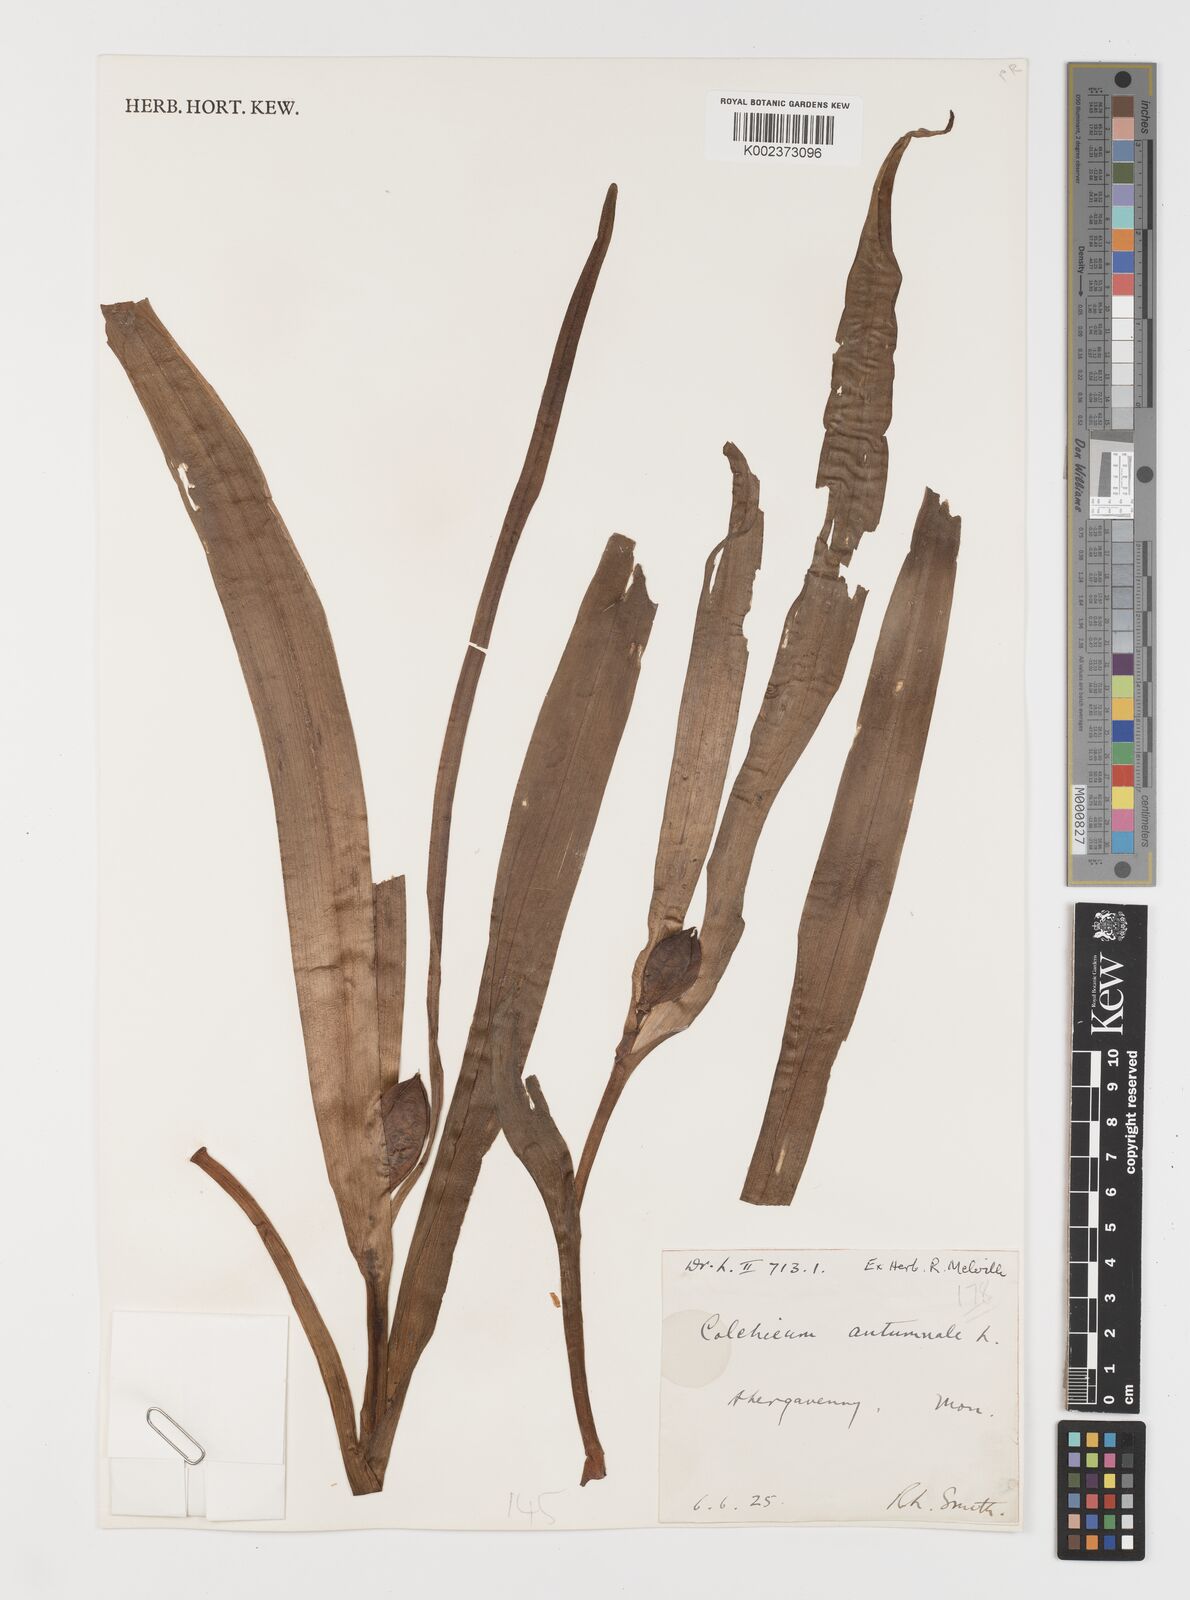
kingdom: Plantae
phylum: Tracheophyta
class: Liliopsida
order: Liliales
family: Colchicaceae
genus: Colchicum
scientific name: Colchicum autumnale
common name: Autumn crocus
